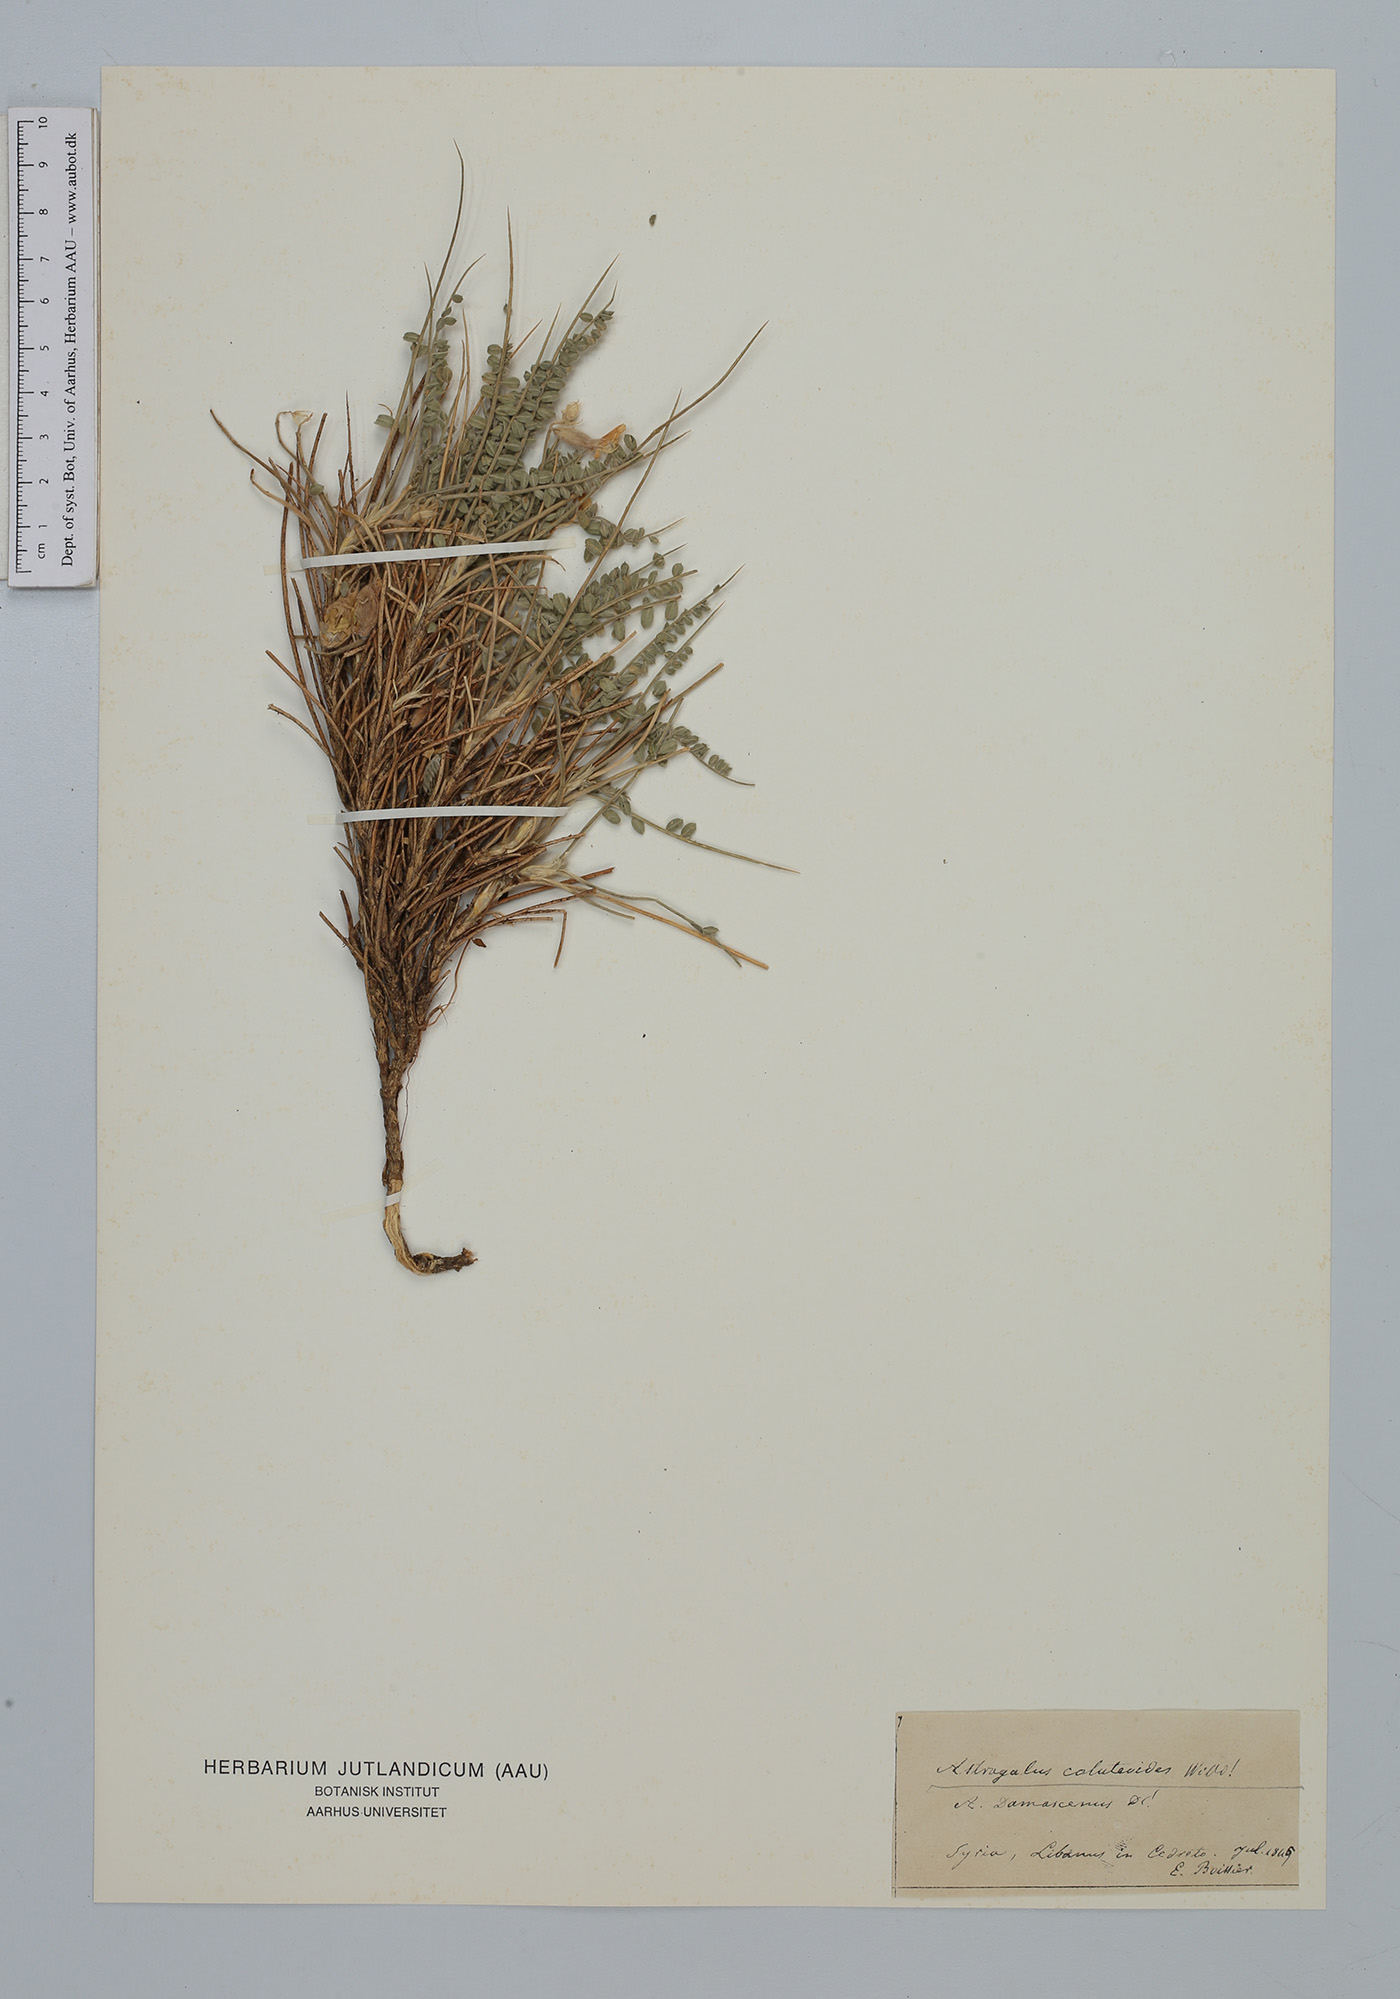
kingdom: Plantae
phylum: Tracheophyta
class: Magnoliopsida
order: Fabales
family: Fabaceae
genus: Astragalus
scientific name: Astragalus coluteoides
